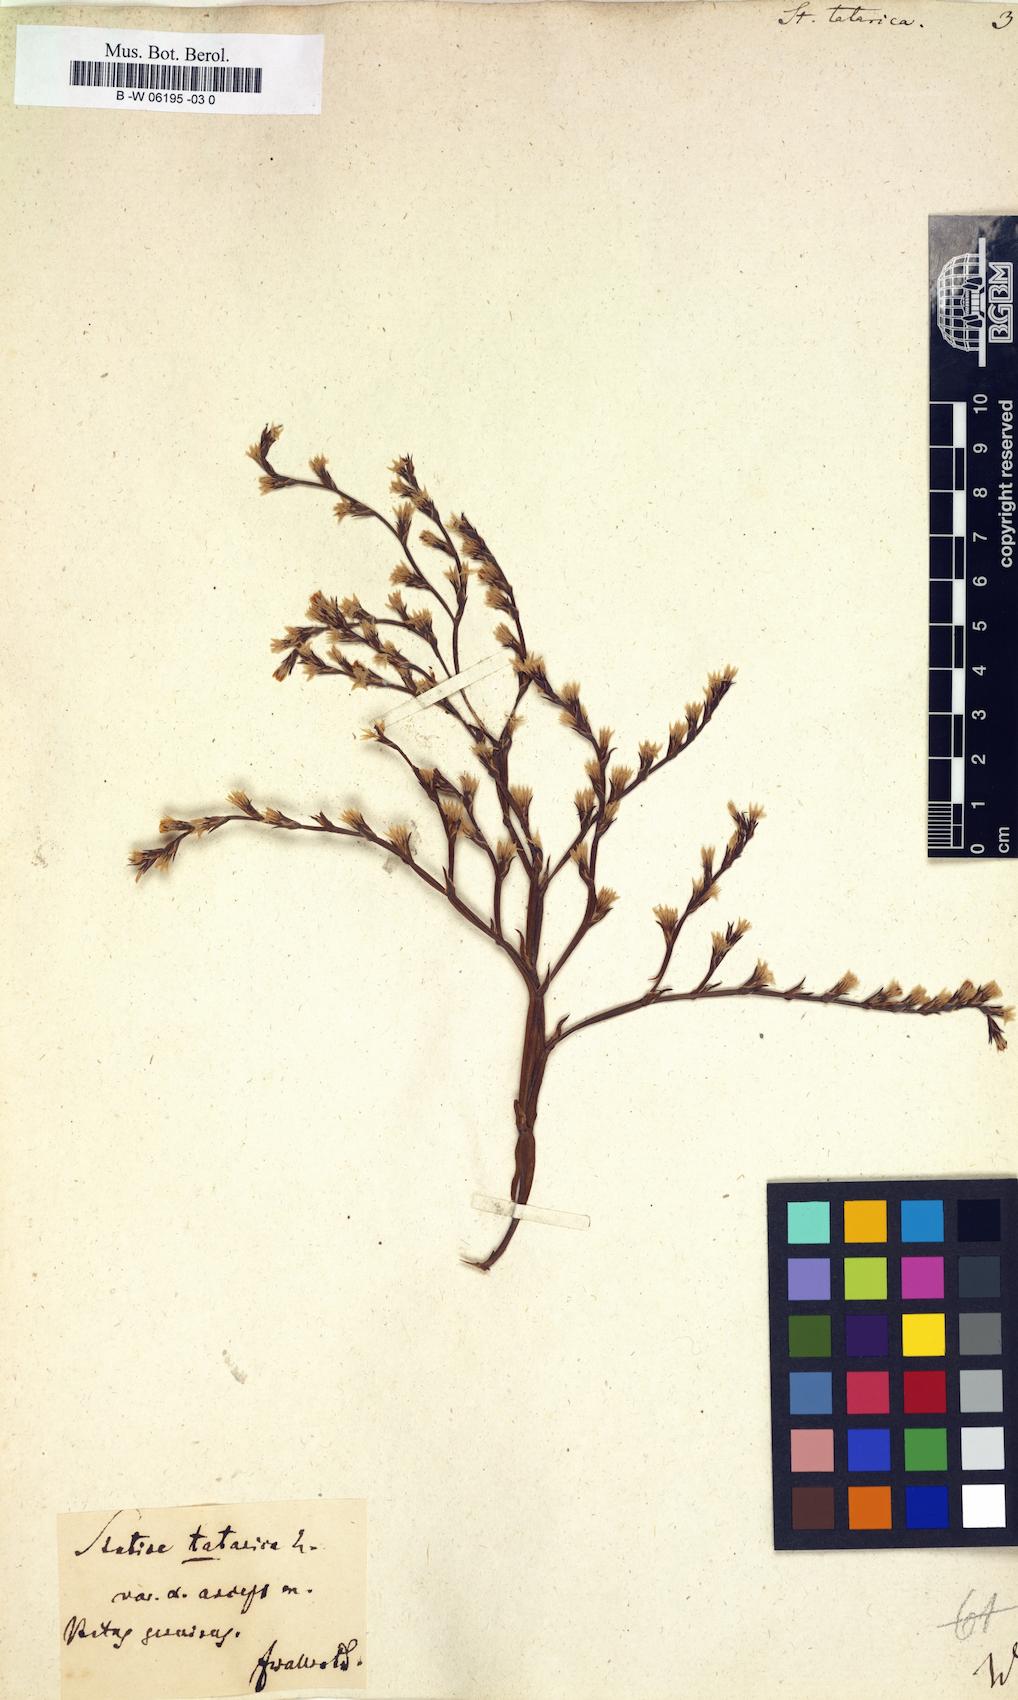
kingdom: Plantae
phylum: Tracheophyta
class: Magnoliopsida
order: Caryophyllales
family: Plumbaginaceae
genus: Goniolimon
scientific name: Goniolimon tataricum
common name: Statice
